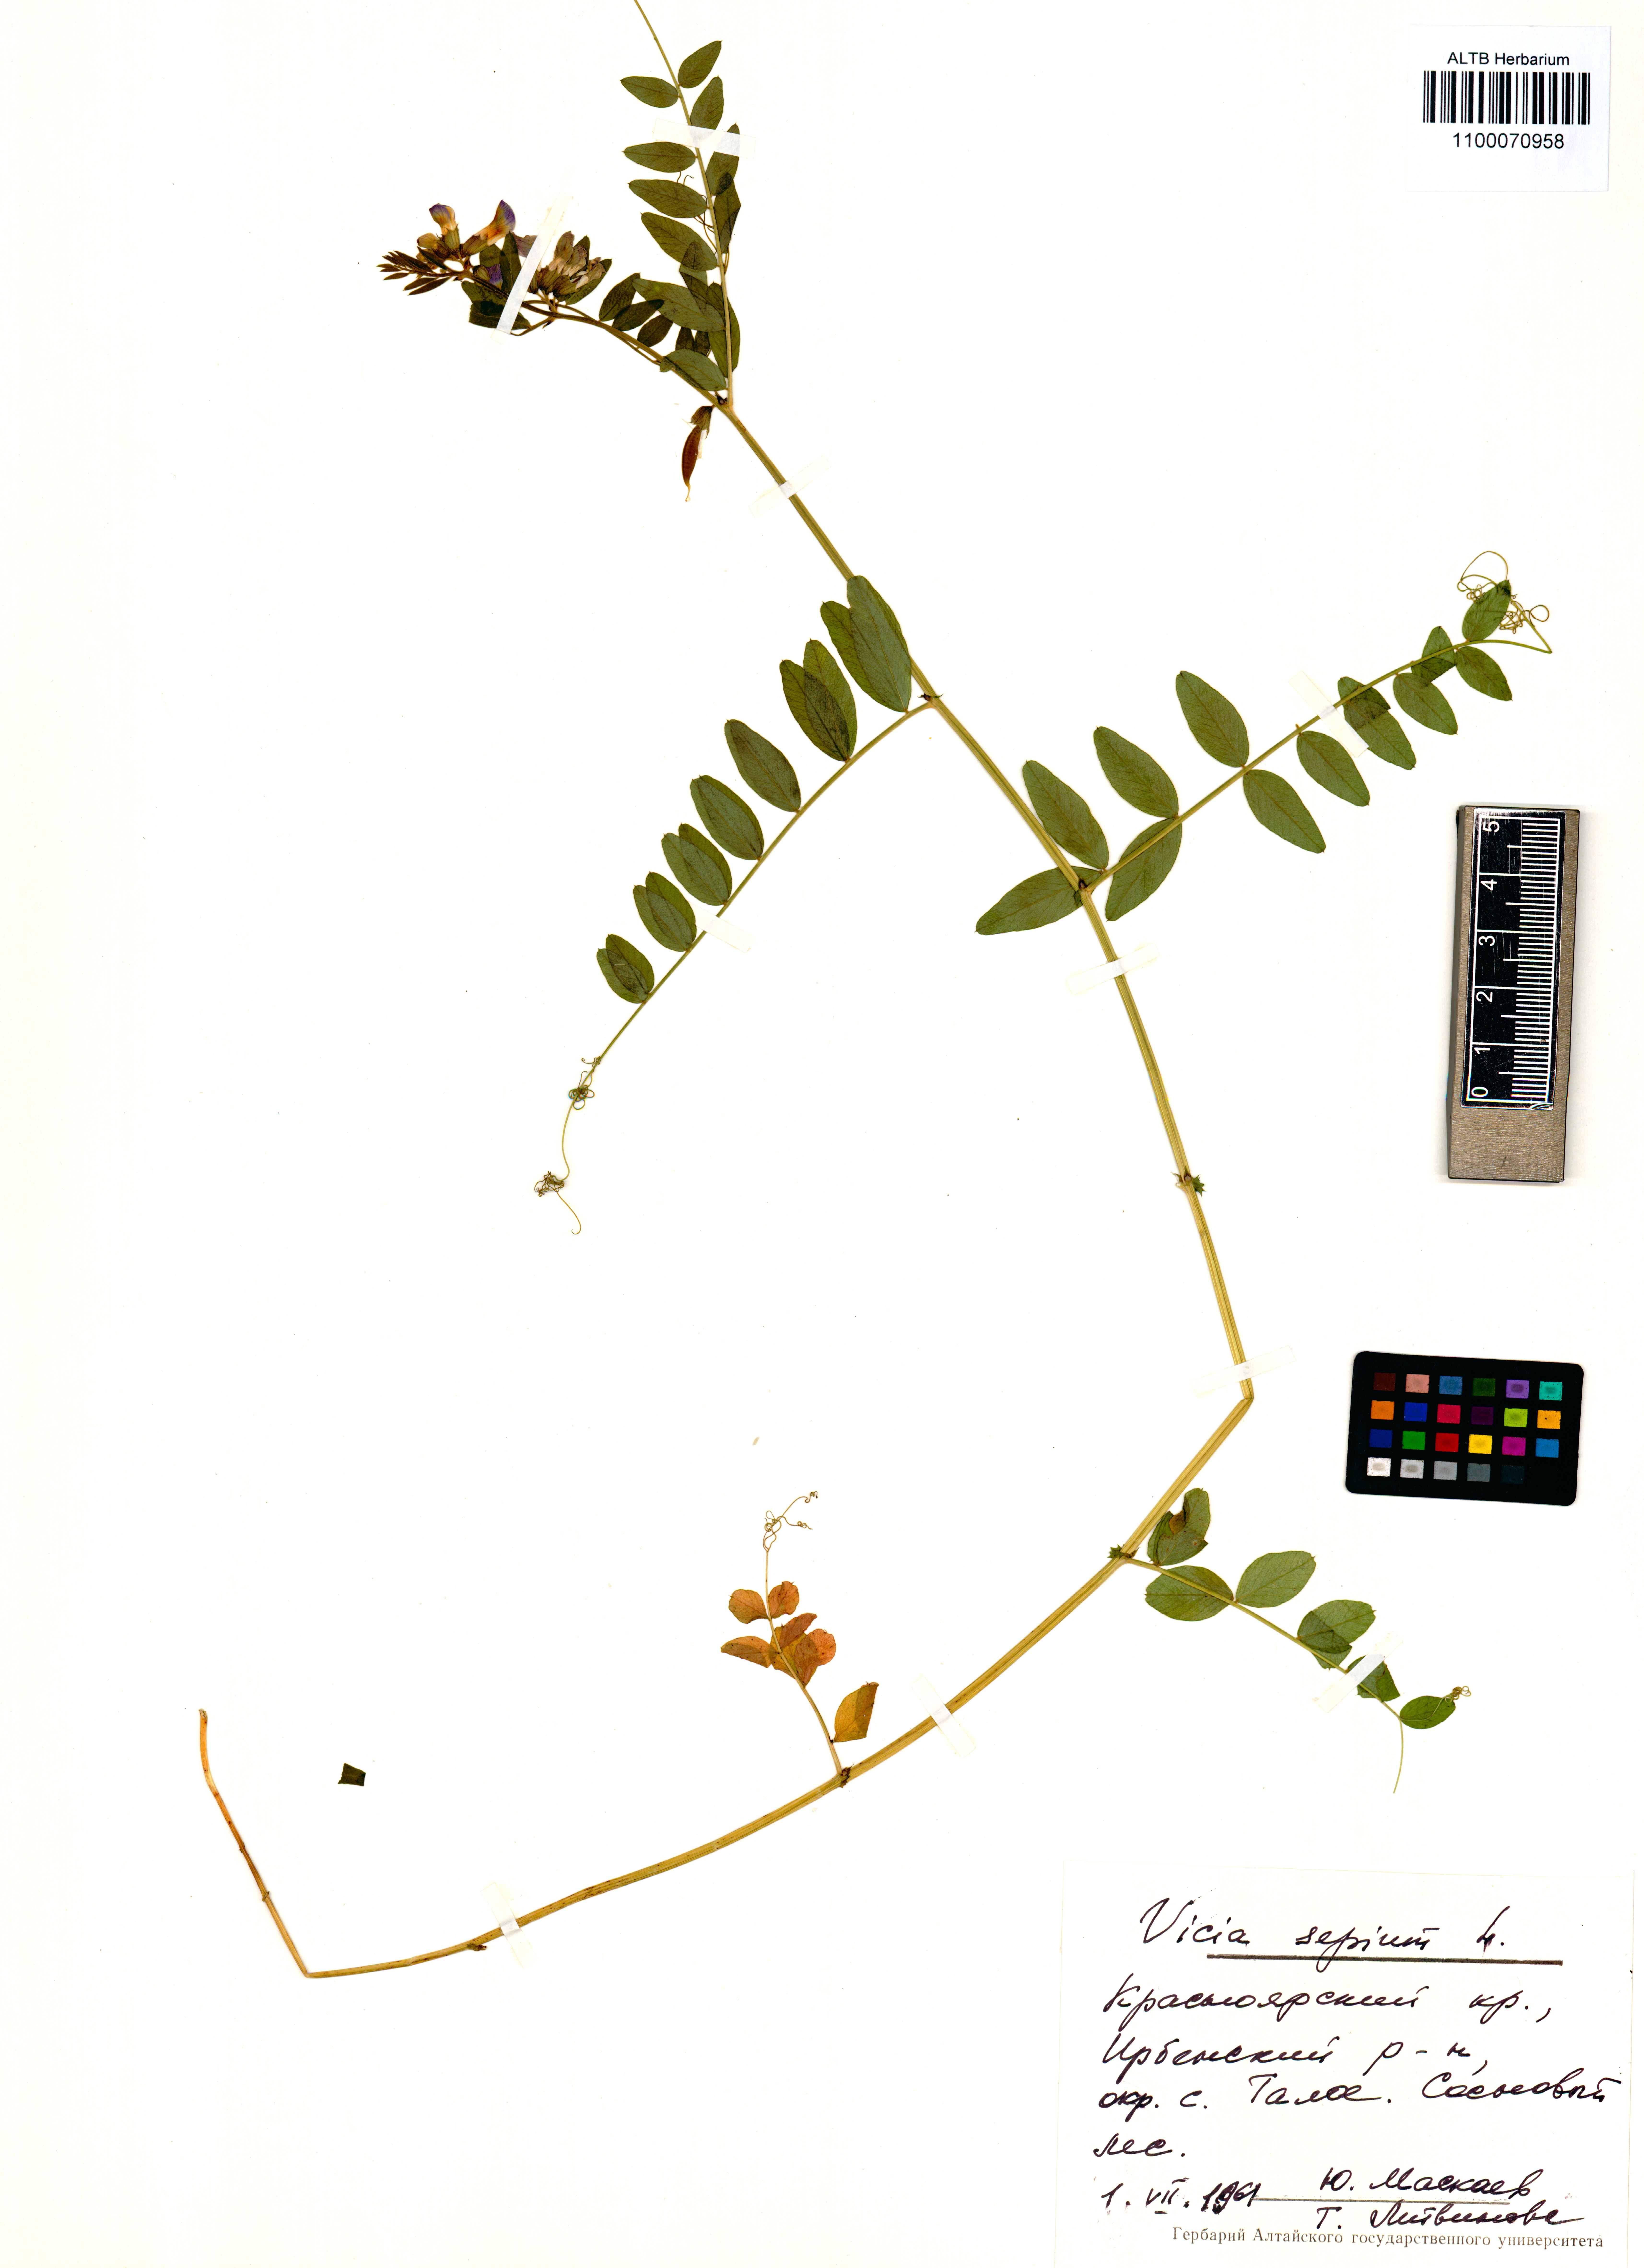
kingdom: Plantae
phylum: Tracheophyta
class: Magnoliopsida
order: Fabales
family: Fabaceae
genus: Vicia
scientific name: Vicia sepium
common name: Bush vetch
